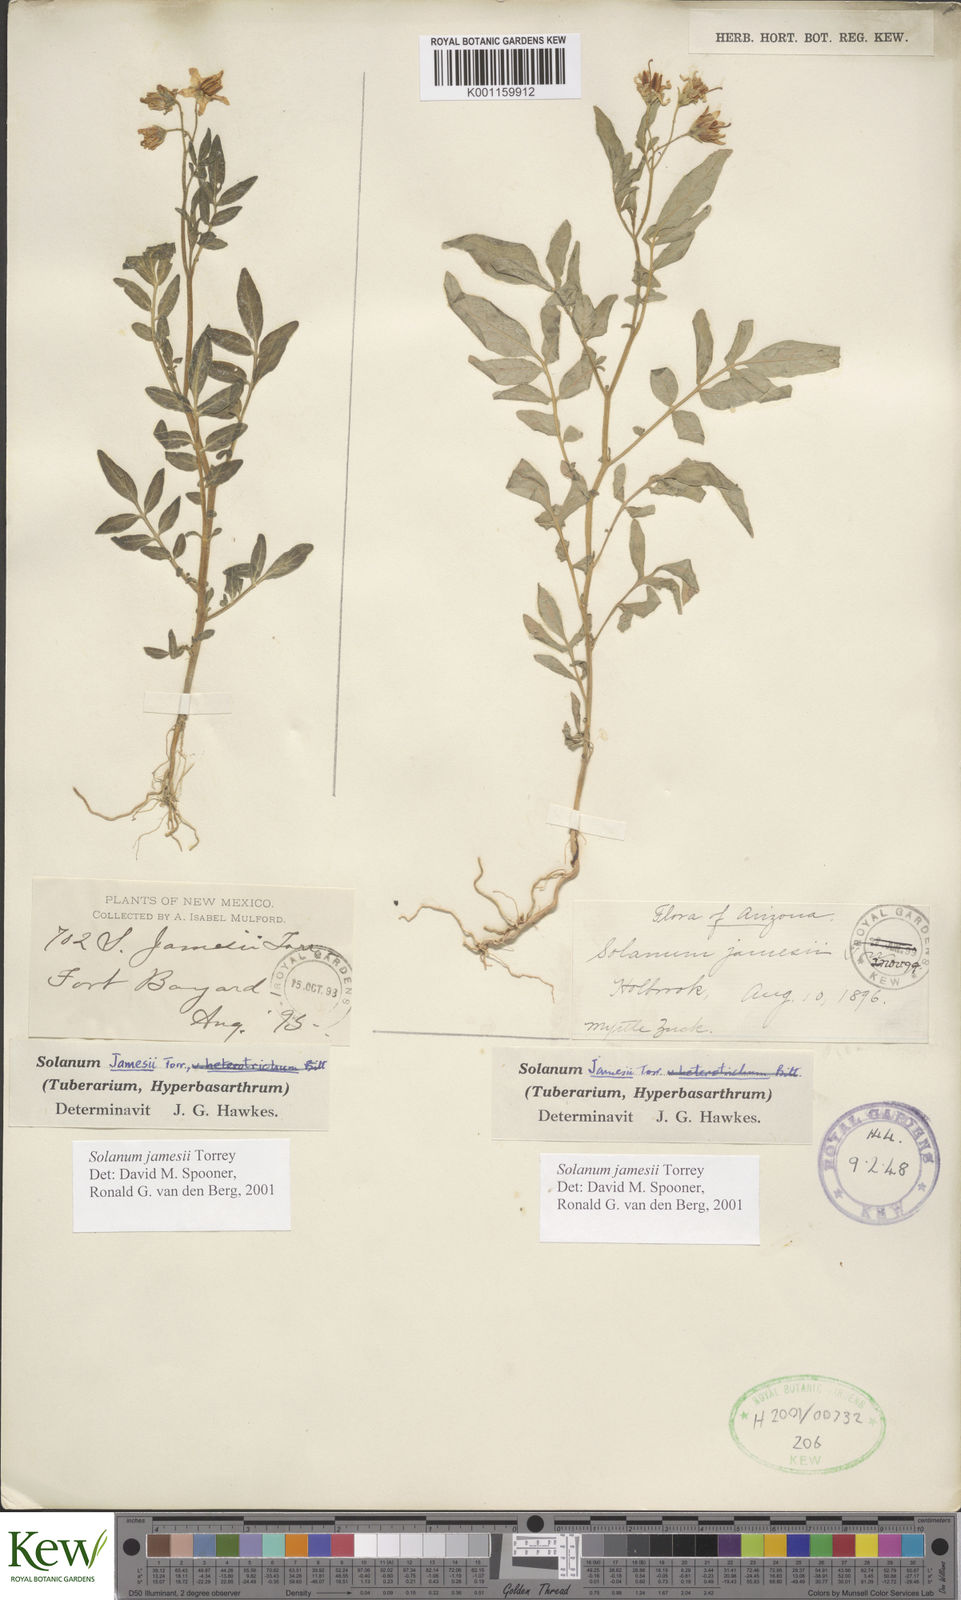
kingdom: Plantae
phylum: Tracheophyta
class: Magnoliopsida
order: Solanales
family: Solanaceae
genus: Solanum
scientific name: Solanum jamesii
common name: Wild potato
